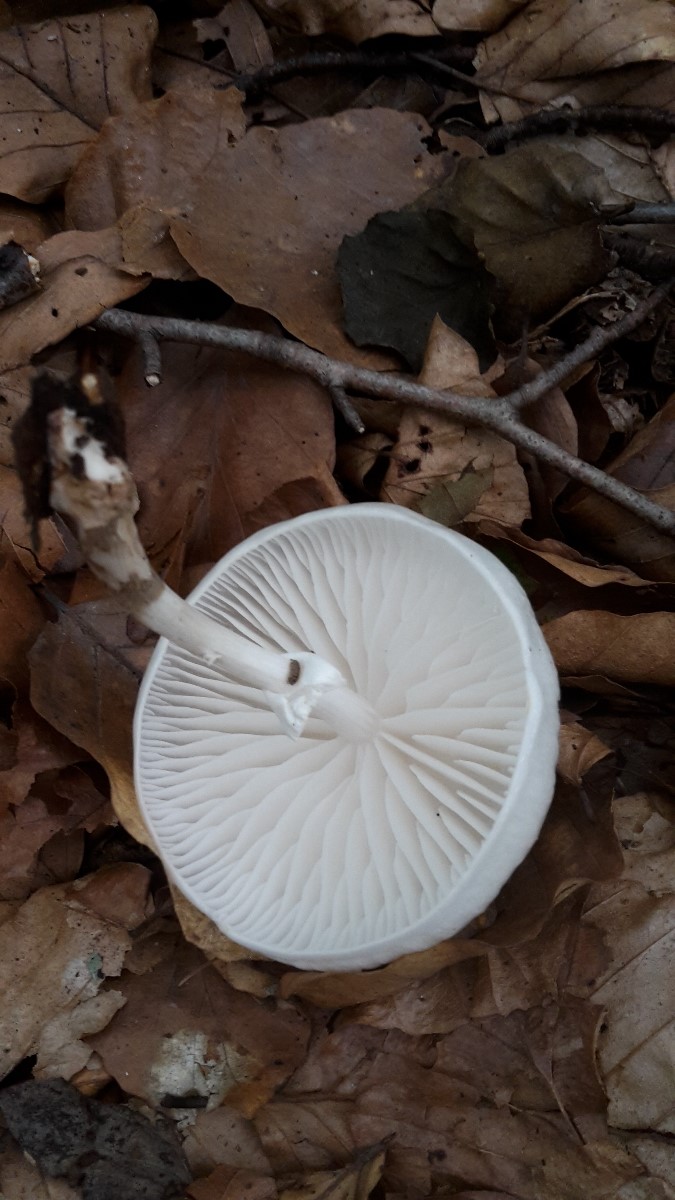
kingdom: Fungi
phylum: Basidiomycota
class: Agaricomycetes
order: Agaricales
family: Physalacriaceae
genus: Mucidula
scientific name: Mucidula mucida
